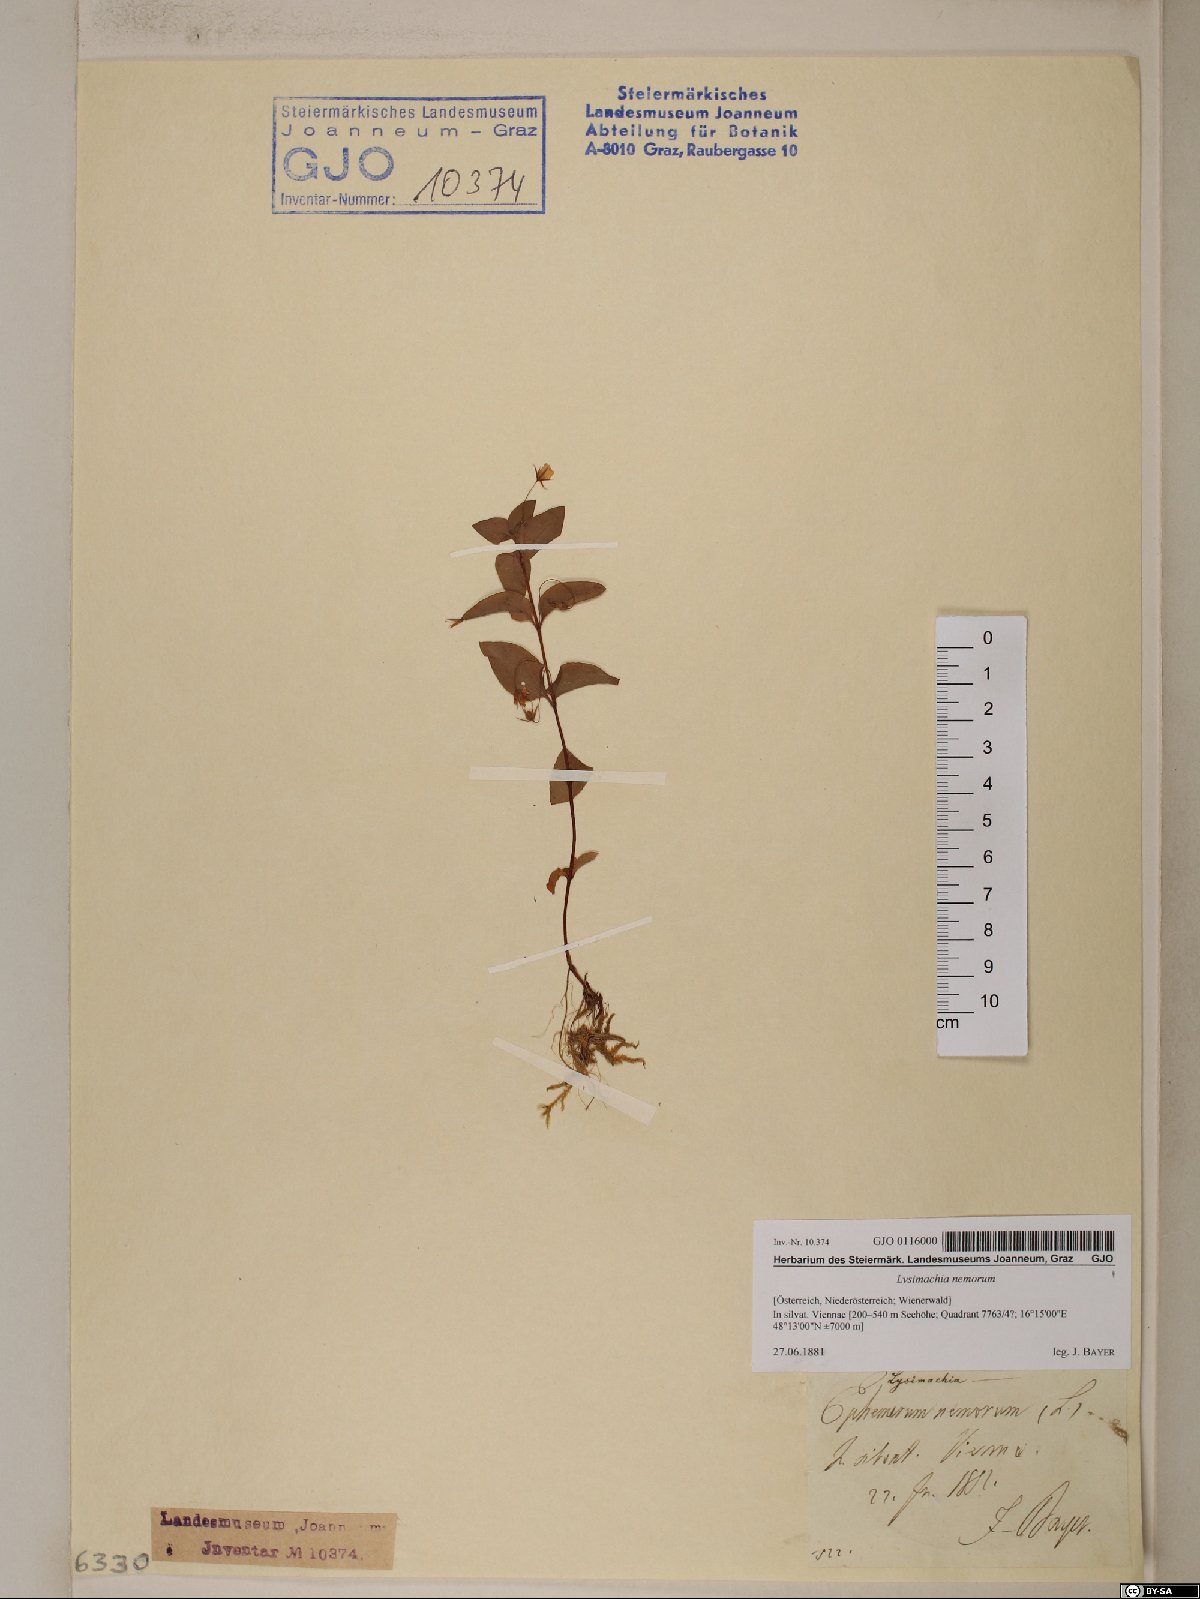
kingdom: Plantae
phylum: Tracheophyta
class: Magnoliopsida
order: Ericales
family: Primulaceae
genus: Lysimachia
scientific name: Lysimachia nemorum
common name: Yellow pimpernel
